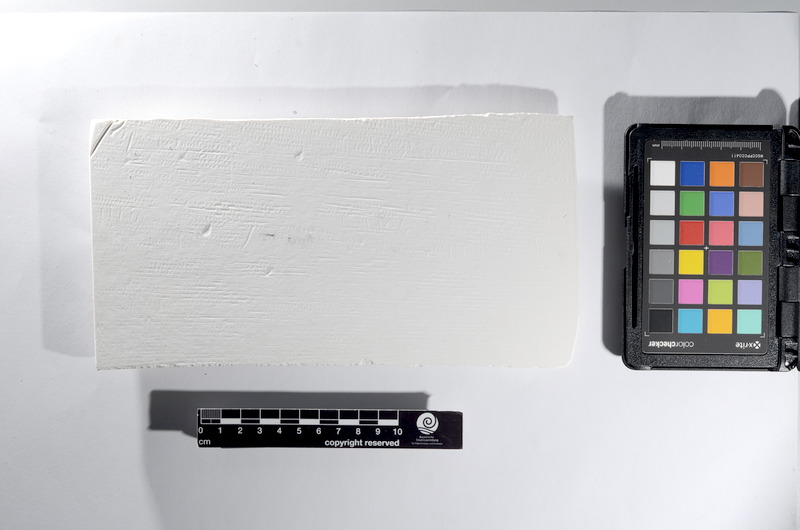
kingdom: Animalia
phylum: Chordata
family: Ascalaboidae
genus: Tharsis
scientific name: Tharsis dubius
